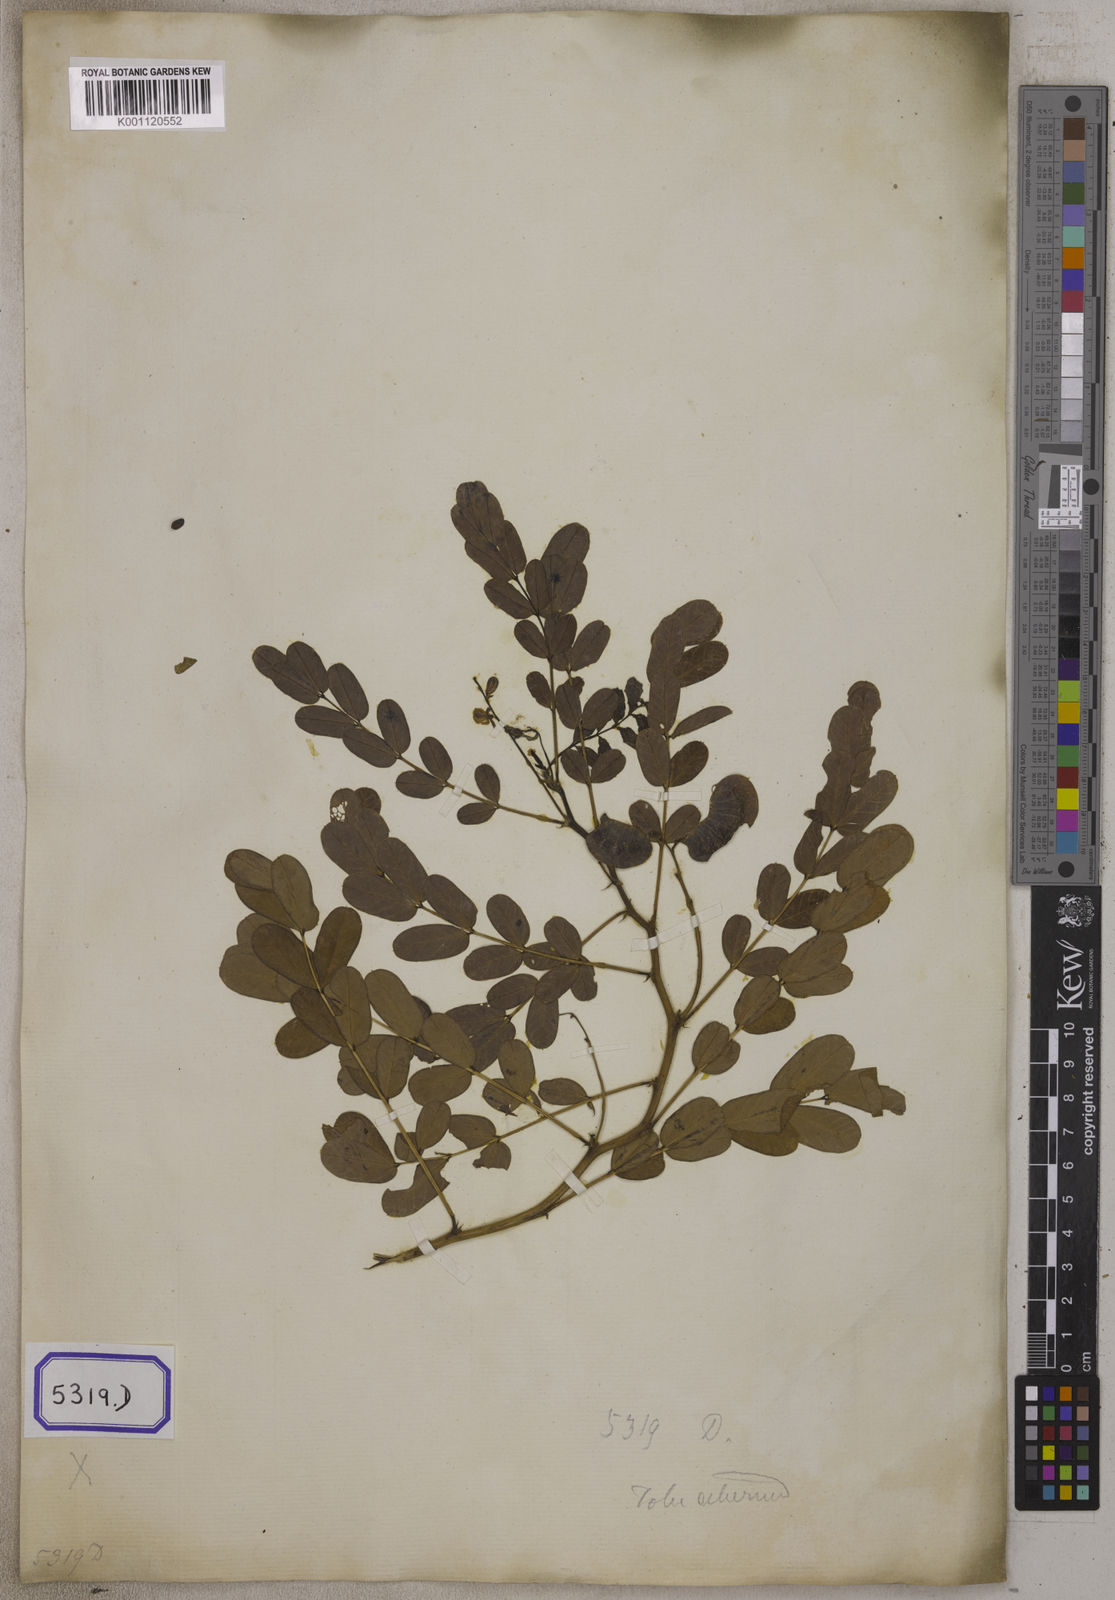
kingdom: Plantae
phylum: Tracheophyta
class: Magnoliopsida
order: Fabales
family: Fabaceae
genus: Senna
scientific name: Senna italica
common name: Port royal senna
